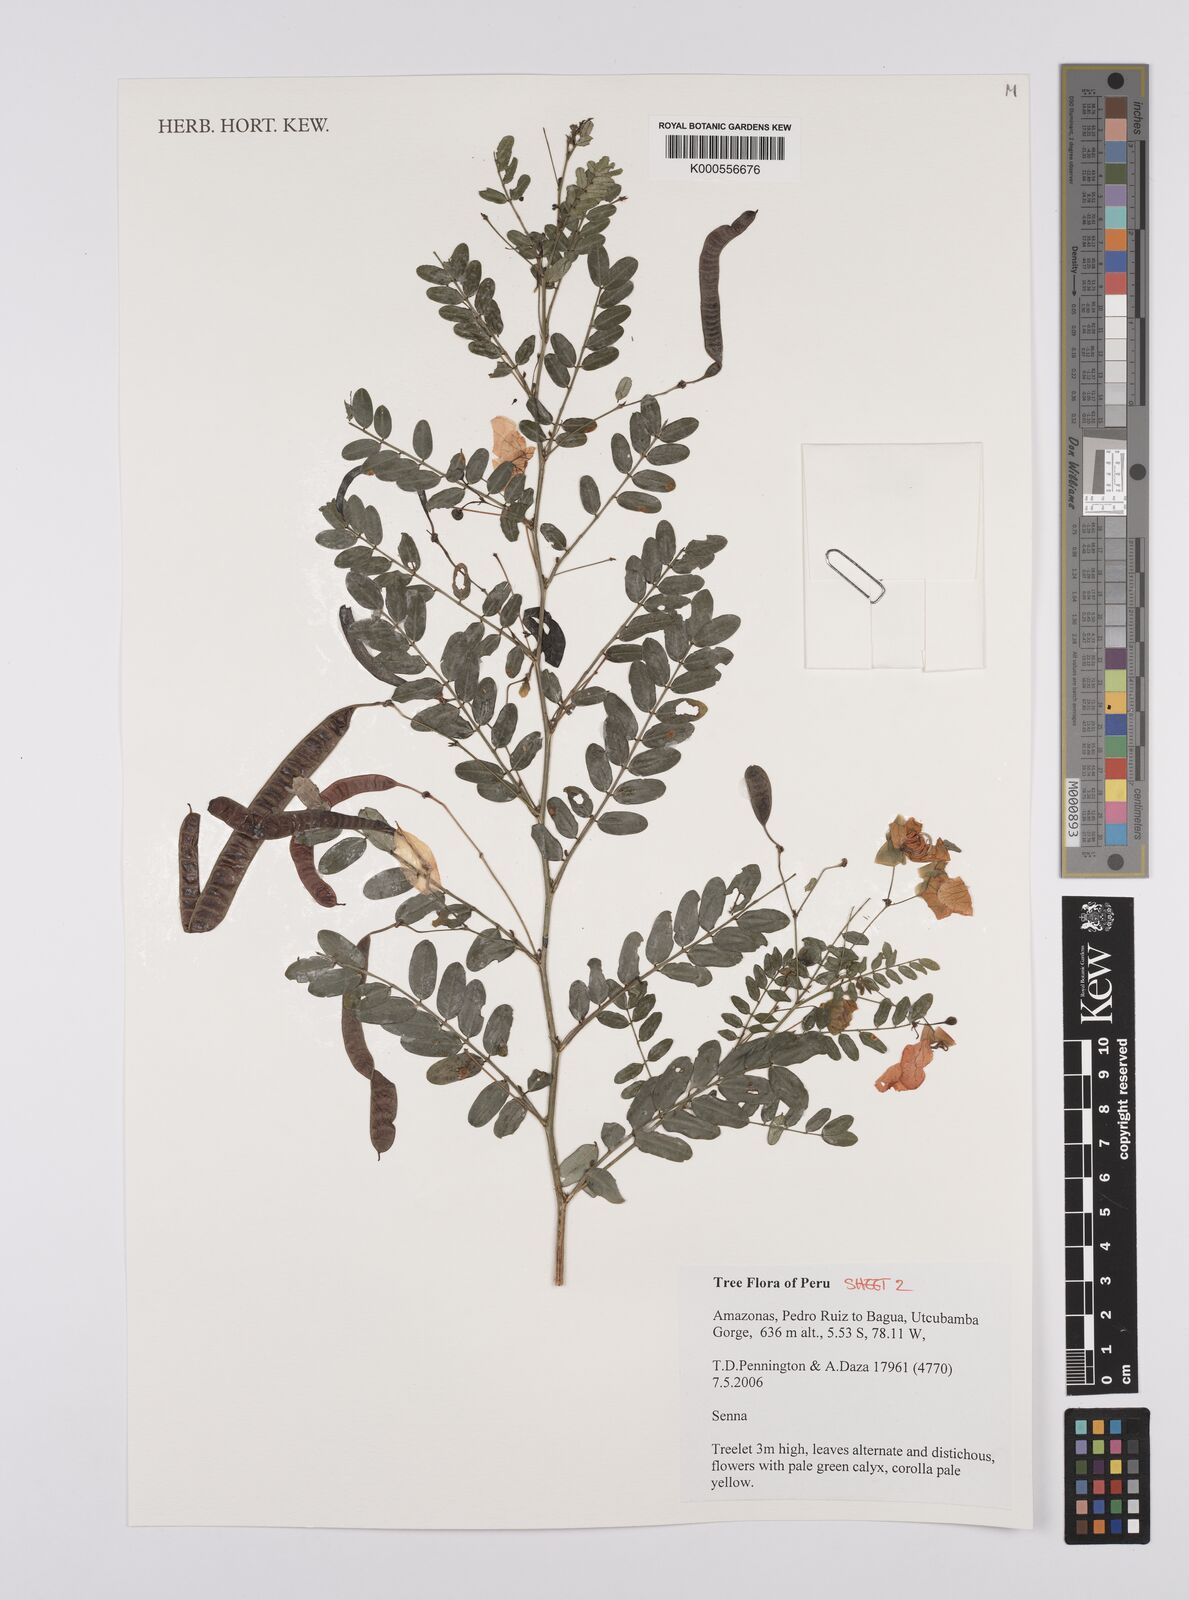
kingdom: Plantae
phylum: Tracheophyta
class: Magnoliopsida
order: Fabales
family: Fabaceae
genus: Senna
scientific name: Senna
